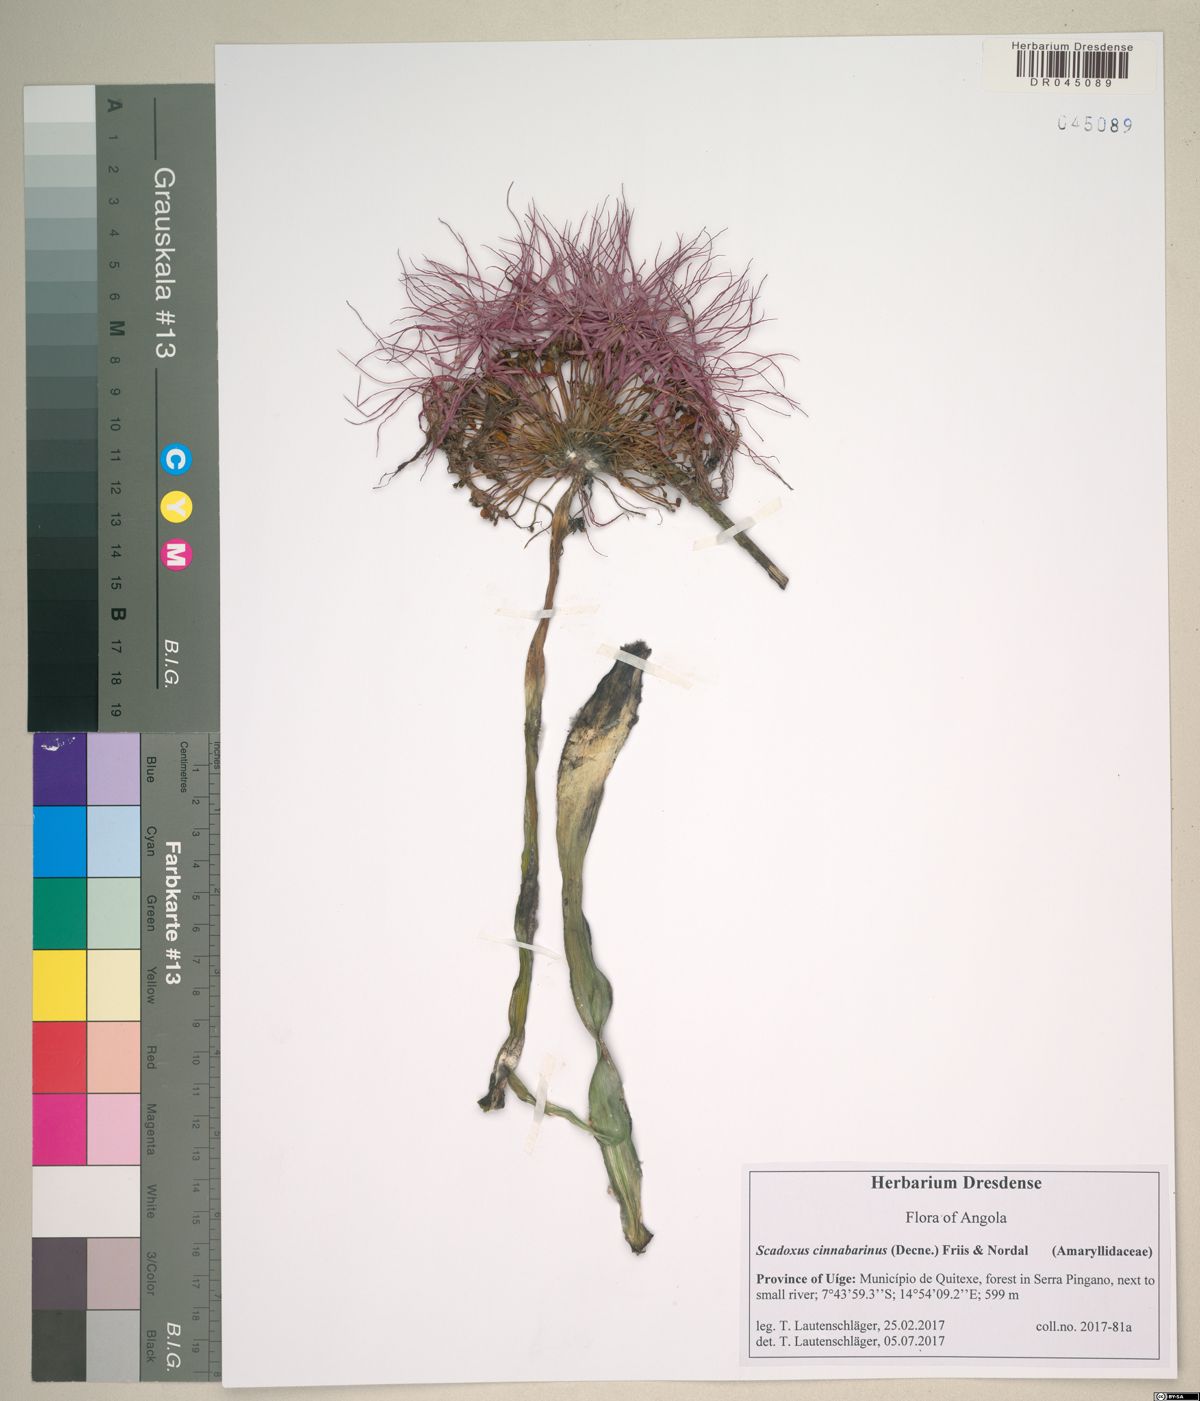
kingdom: Plantae
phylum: Tracheophyta
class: Liliopsida
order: Asparagales
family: Amaryllidaceae
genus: Scadoxus
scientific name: Scadoxus cinnabarinus
